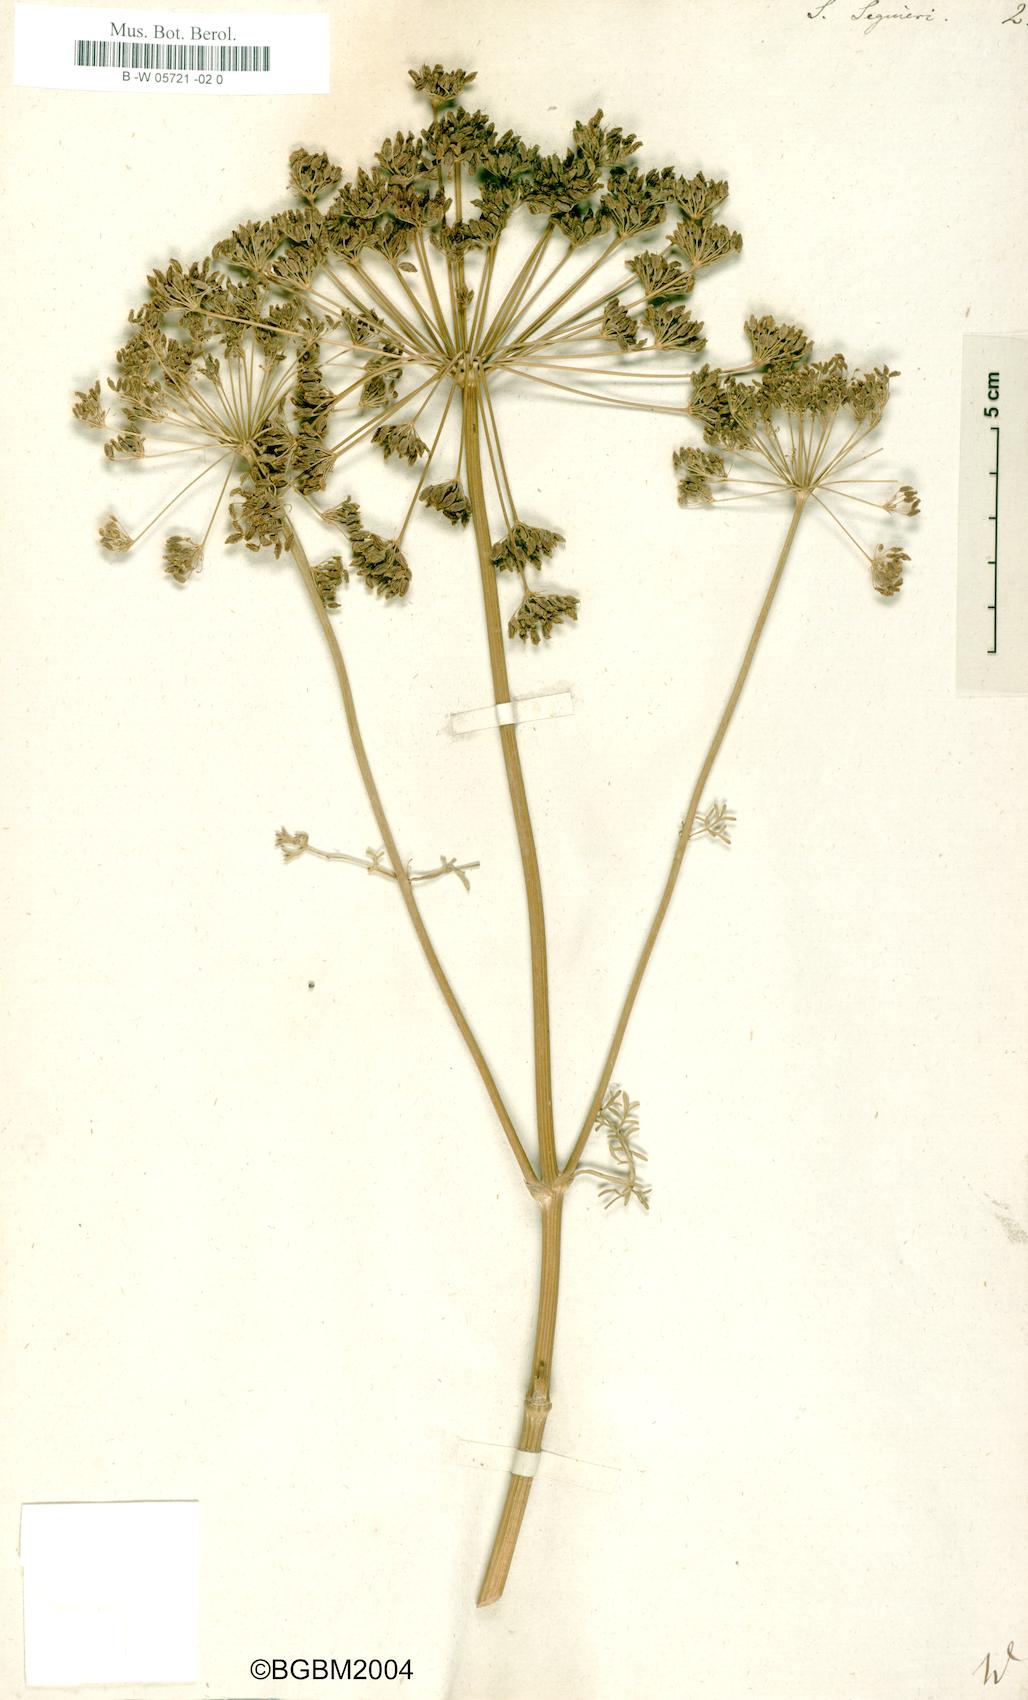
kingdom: Plantae
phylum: Tracheophyta
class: Magnoliopsida
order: Apiales
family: Apiaceae
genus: Coristospermum
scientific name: Coristospermum lucidum
